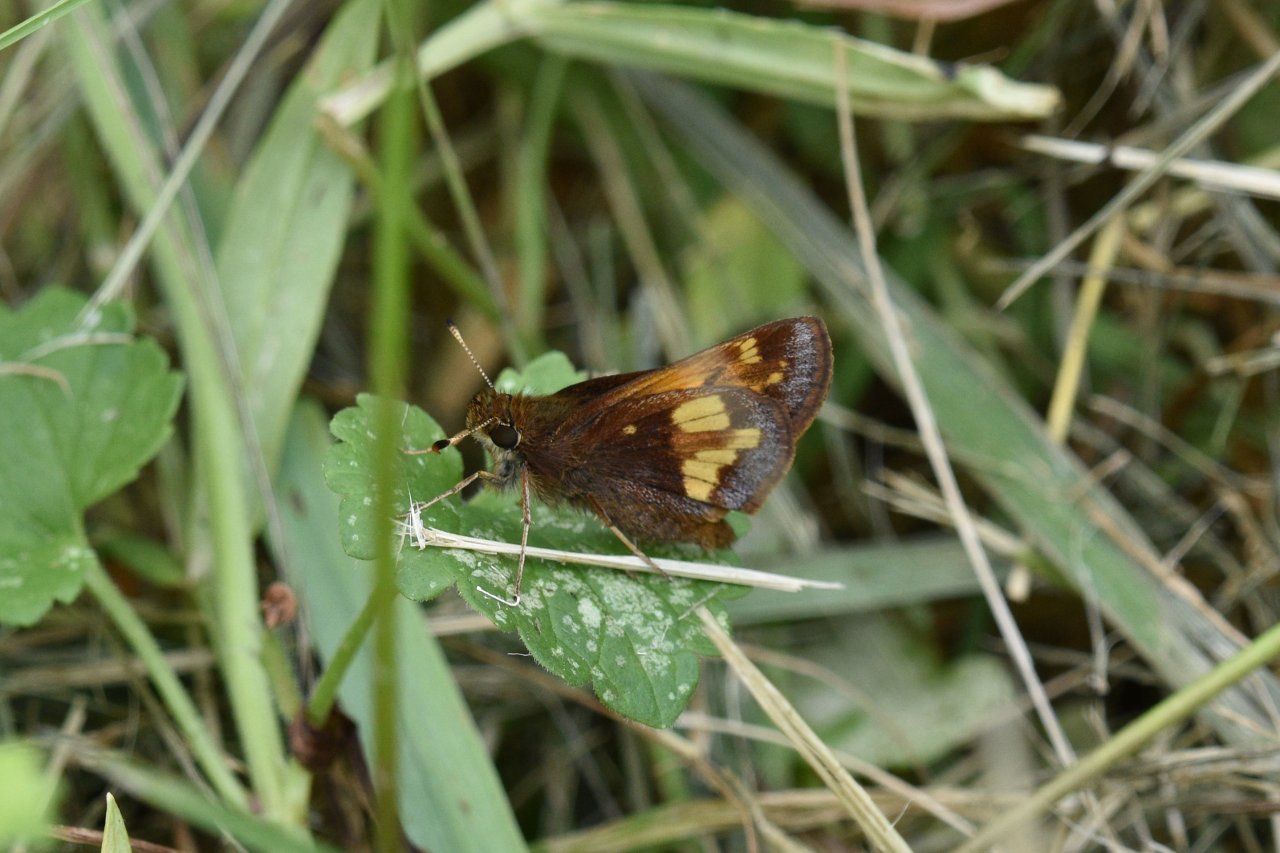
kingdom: Animalia
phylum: Arthropoda
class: Insecta
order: Lepidoptera
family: Hesperiidae
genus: Lon
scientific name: Lon hobomok
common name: Hobomok Skipper
